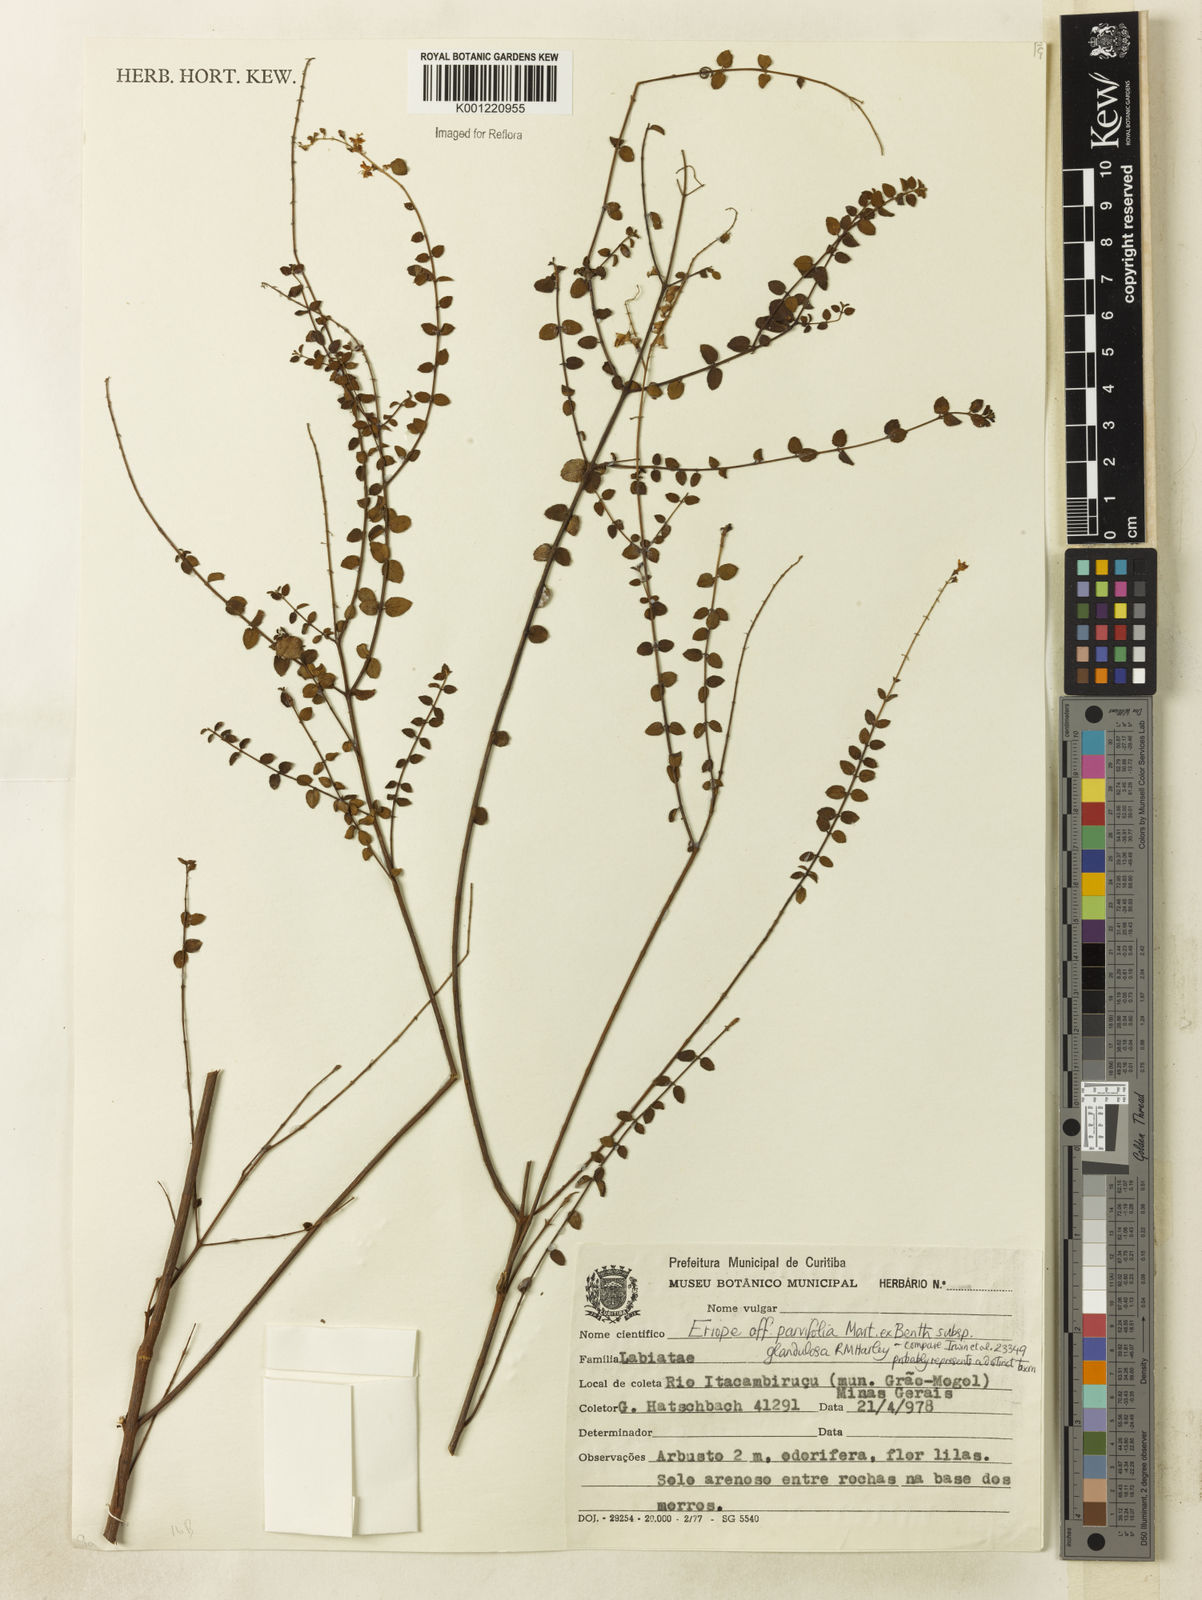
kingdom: Plantae
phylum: Tracheophyta
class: Magnoliopsida
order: Lamiales
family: Lamiaceae
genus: Eriope
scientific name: Eriope glandulosa
